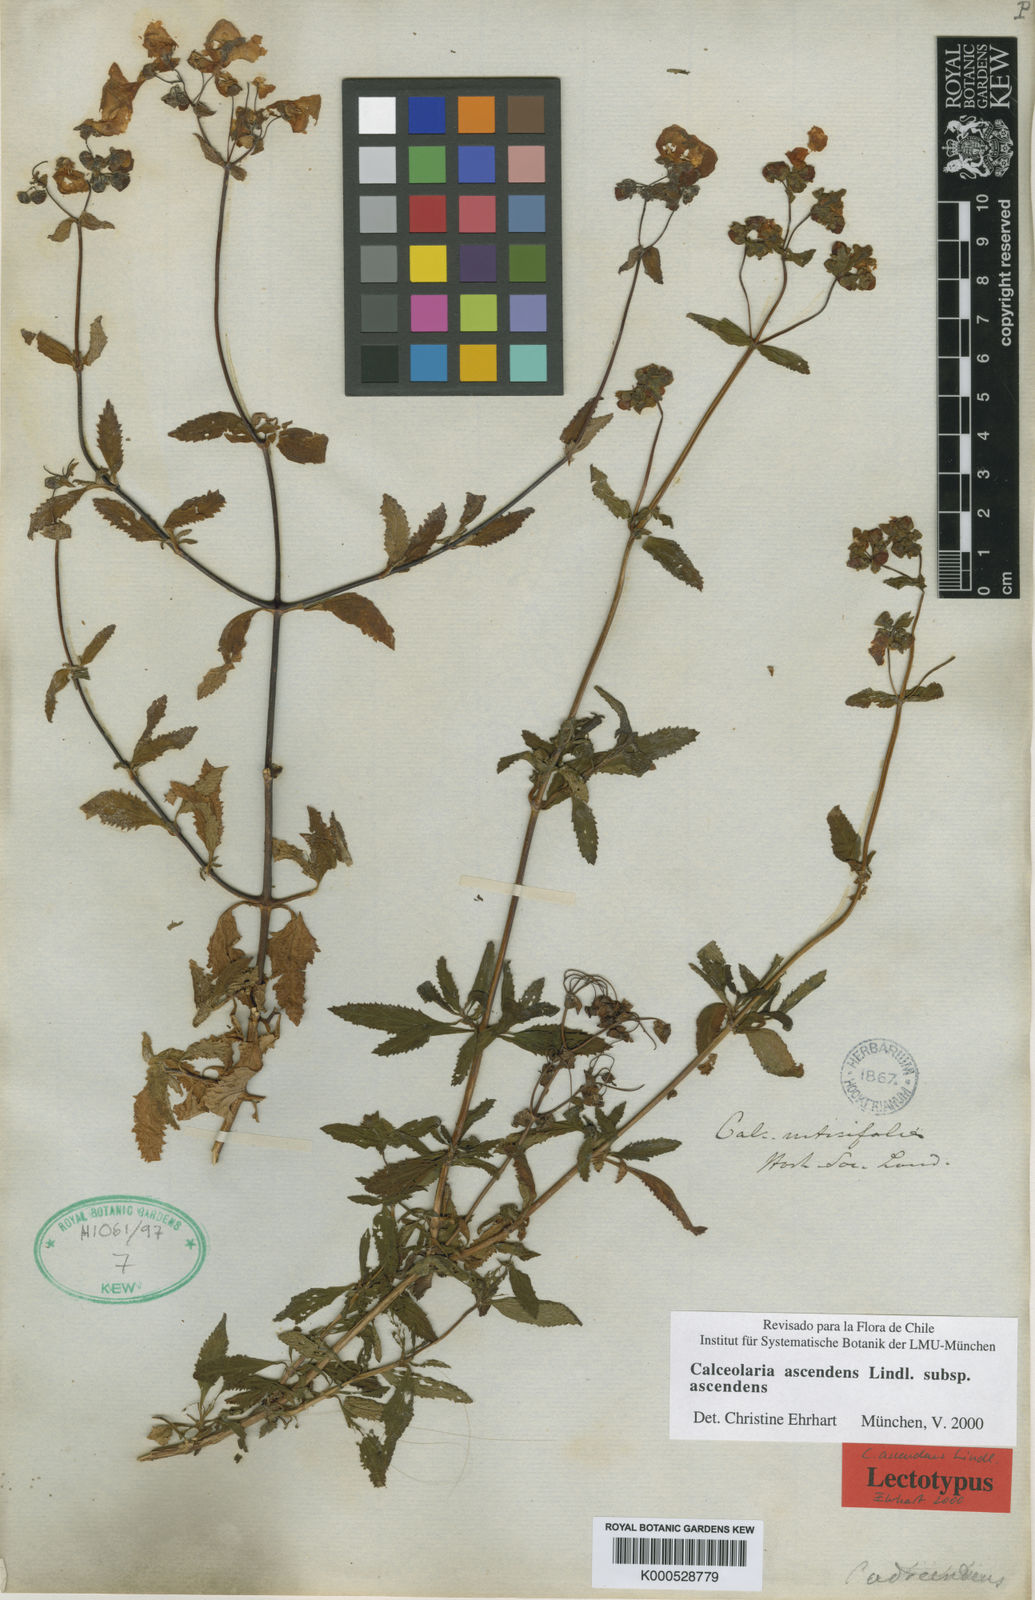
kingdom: Plantae
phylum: Tracheophyta
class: Magnoliopsida
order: Lamiales
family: Calceolariaceae
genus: Calceolaria
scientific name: Calceolaria ascendens
